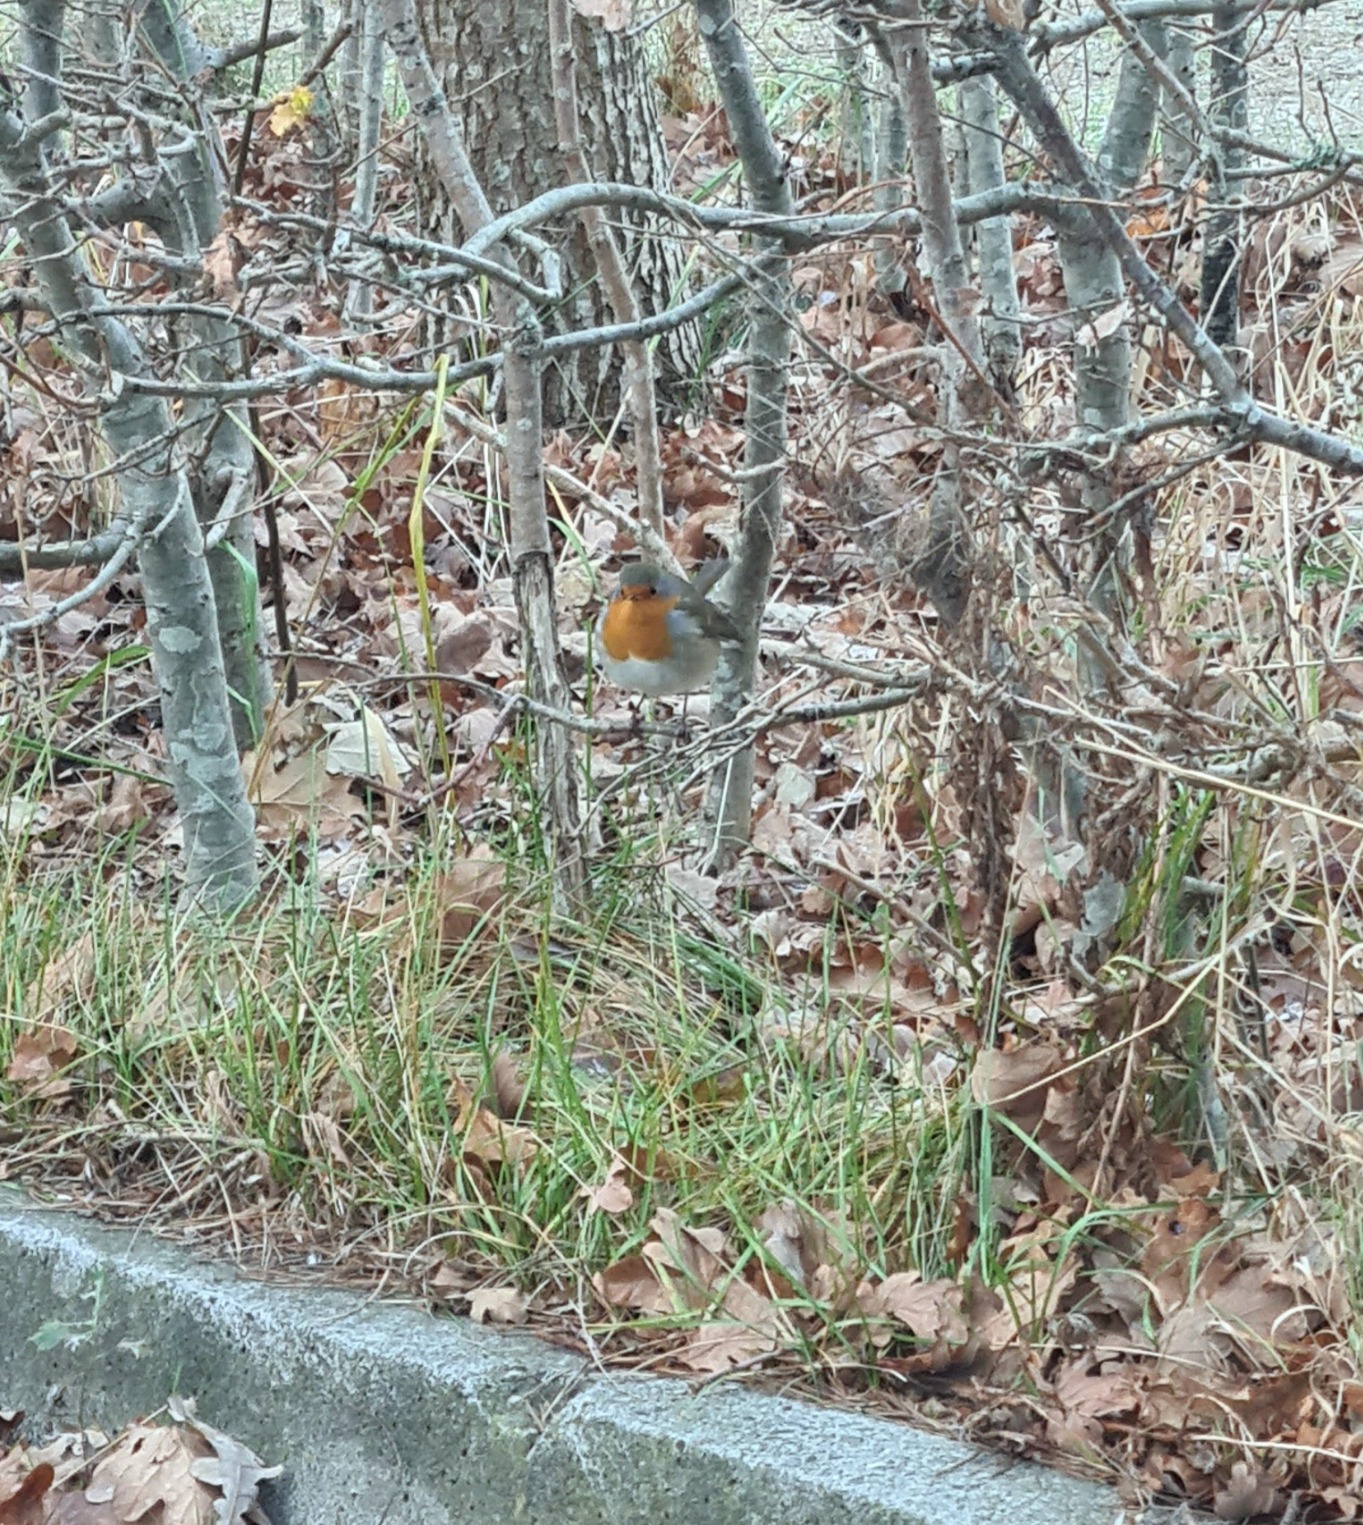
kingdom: Animalia
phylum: Chordata
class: Aves
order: Passeriformes
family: Muscicapidae
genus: Erithacus
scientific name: Erithacus rubecula
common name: Rødhals/rødkælk
